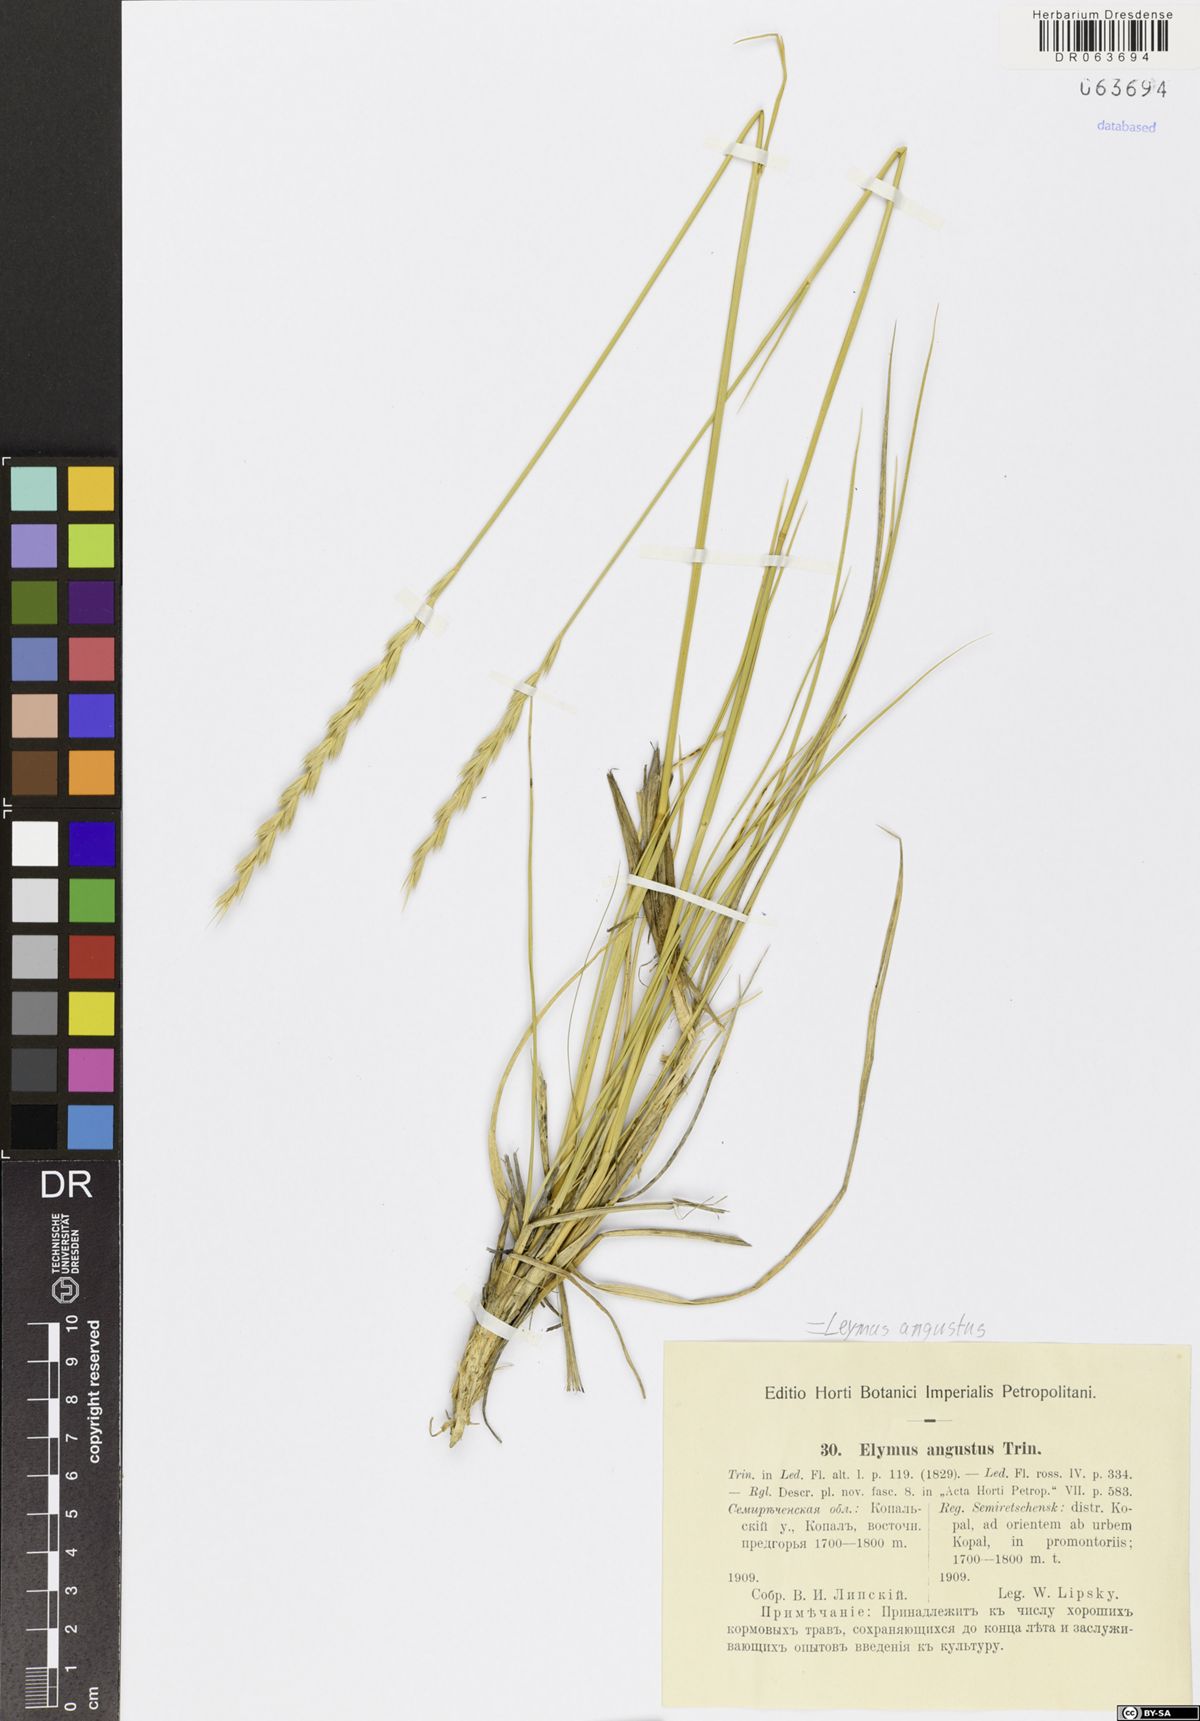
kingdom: Plantae
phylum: Tracheophyta
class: Liliopsida
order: Poales
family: Poaceae
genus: Leymus
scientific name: Leymus angustus
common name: Altai wildrye
